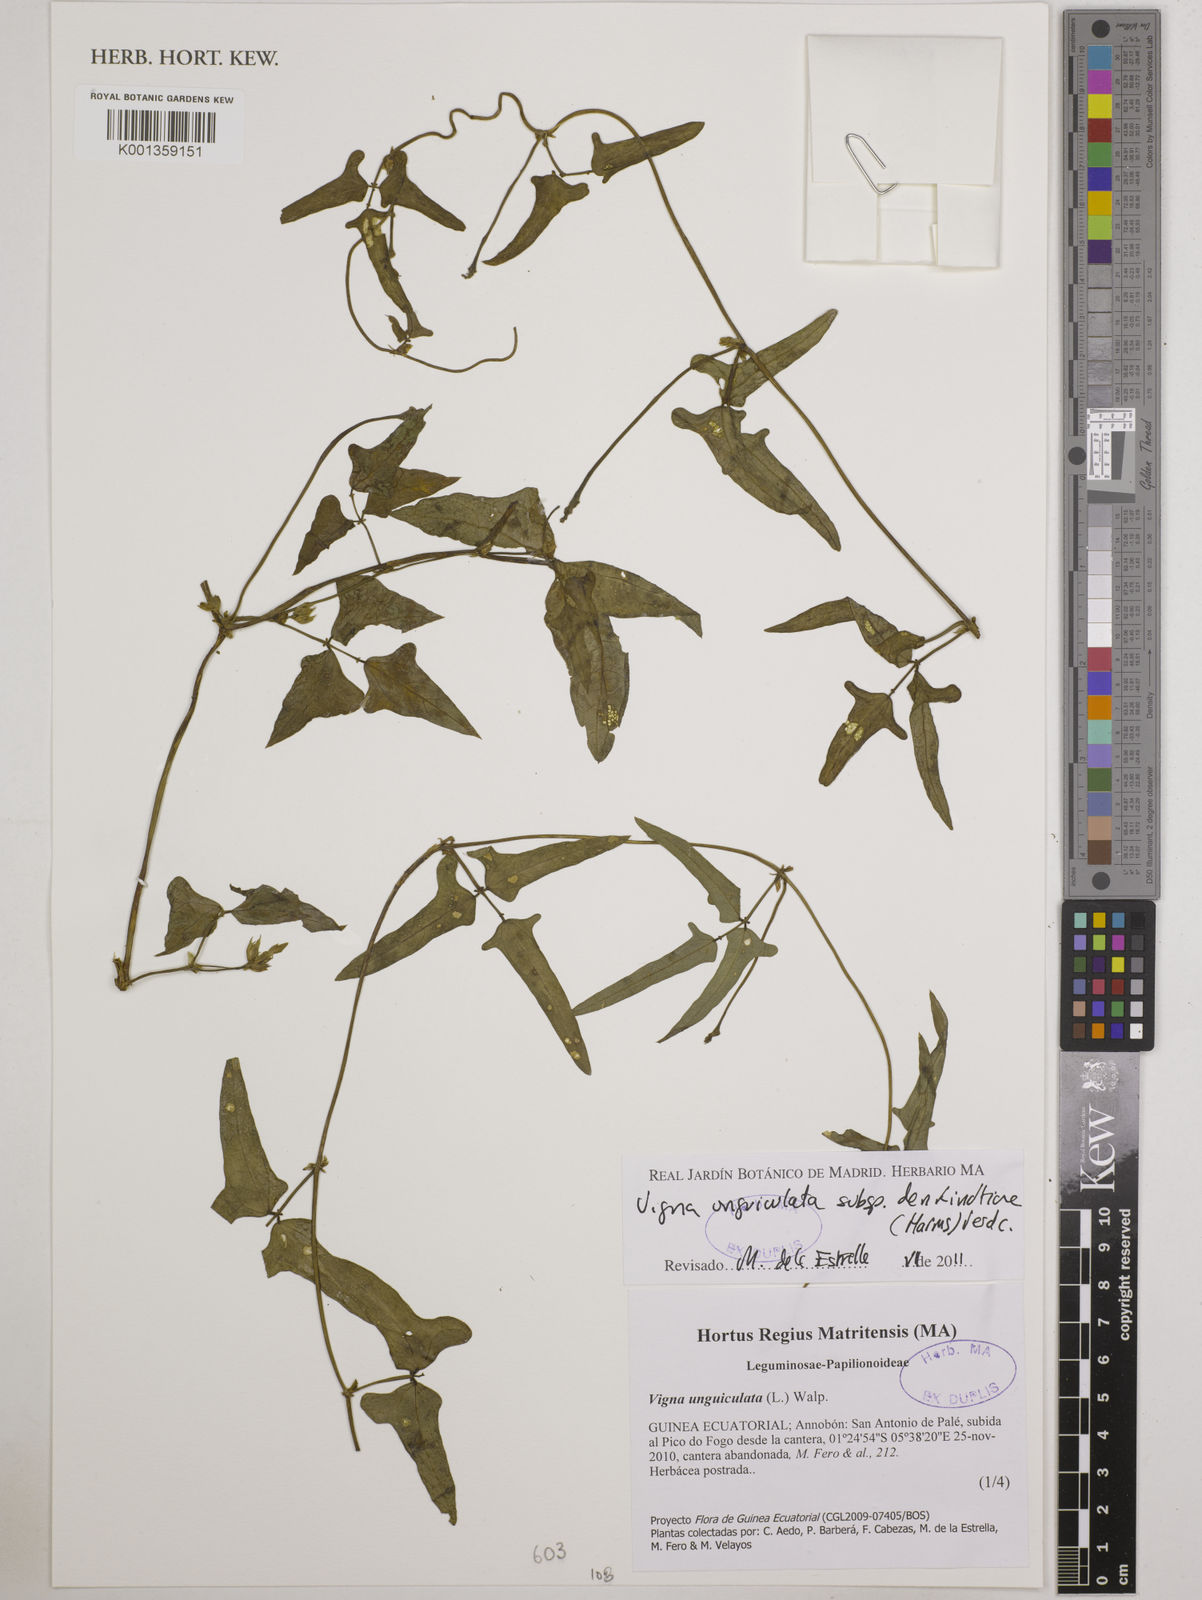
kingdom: Plantae
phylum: Tracheophyta
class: Magnoliopsida
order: Fabales
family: Fabaceae
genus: Vigna
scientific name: Vigna
